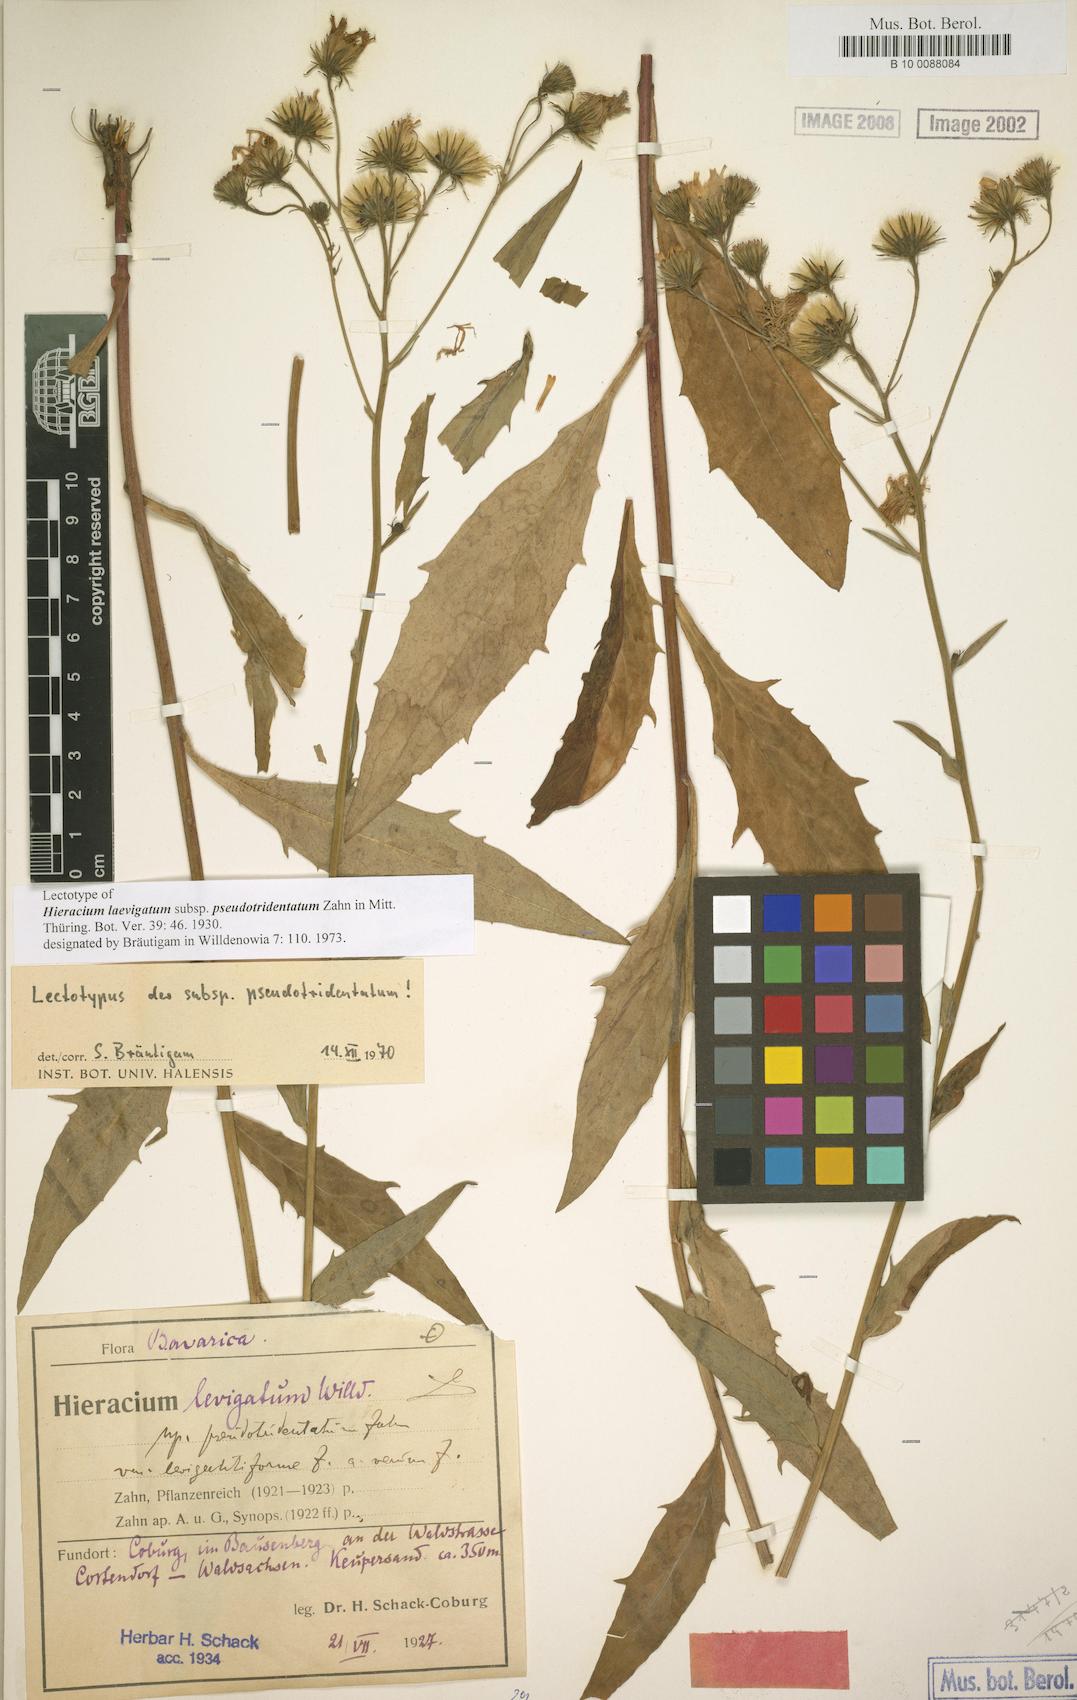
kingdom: Plantae
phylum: Tracheophyta
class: Magnoliopsida
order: Asterales
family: Asteraceae
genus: Hieracium
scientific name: Hieracium laevigatum
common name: Smooth hawkweed
